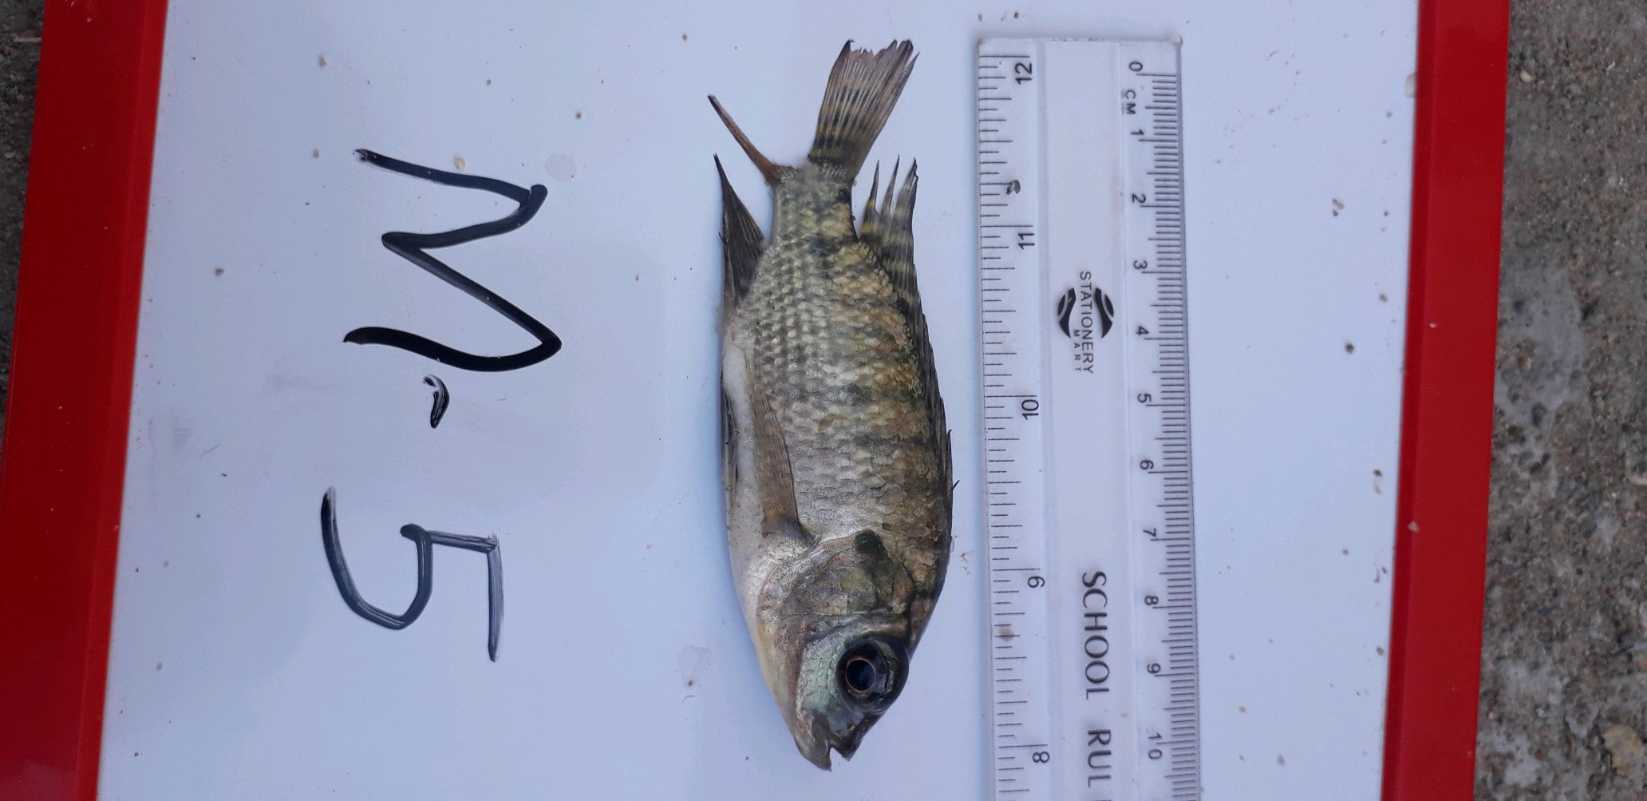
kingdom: Animalia
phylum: Chordata
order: Perciformes
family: Cichlidae
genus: Oreochromis
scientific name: Oreochromis niloticus
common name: Nile tilapia
